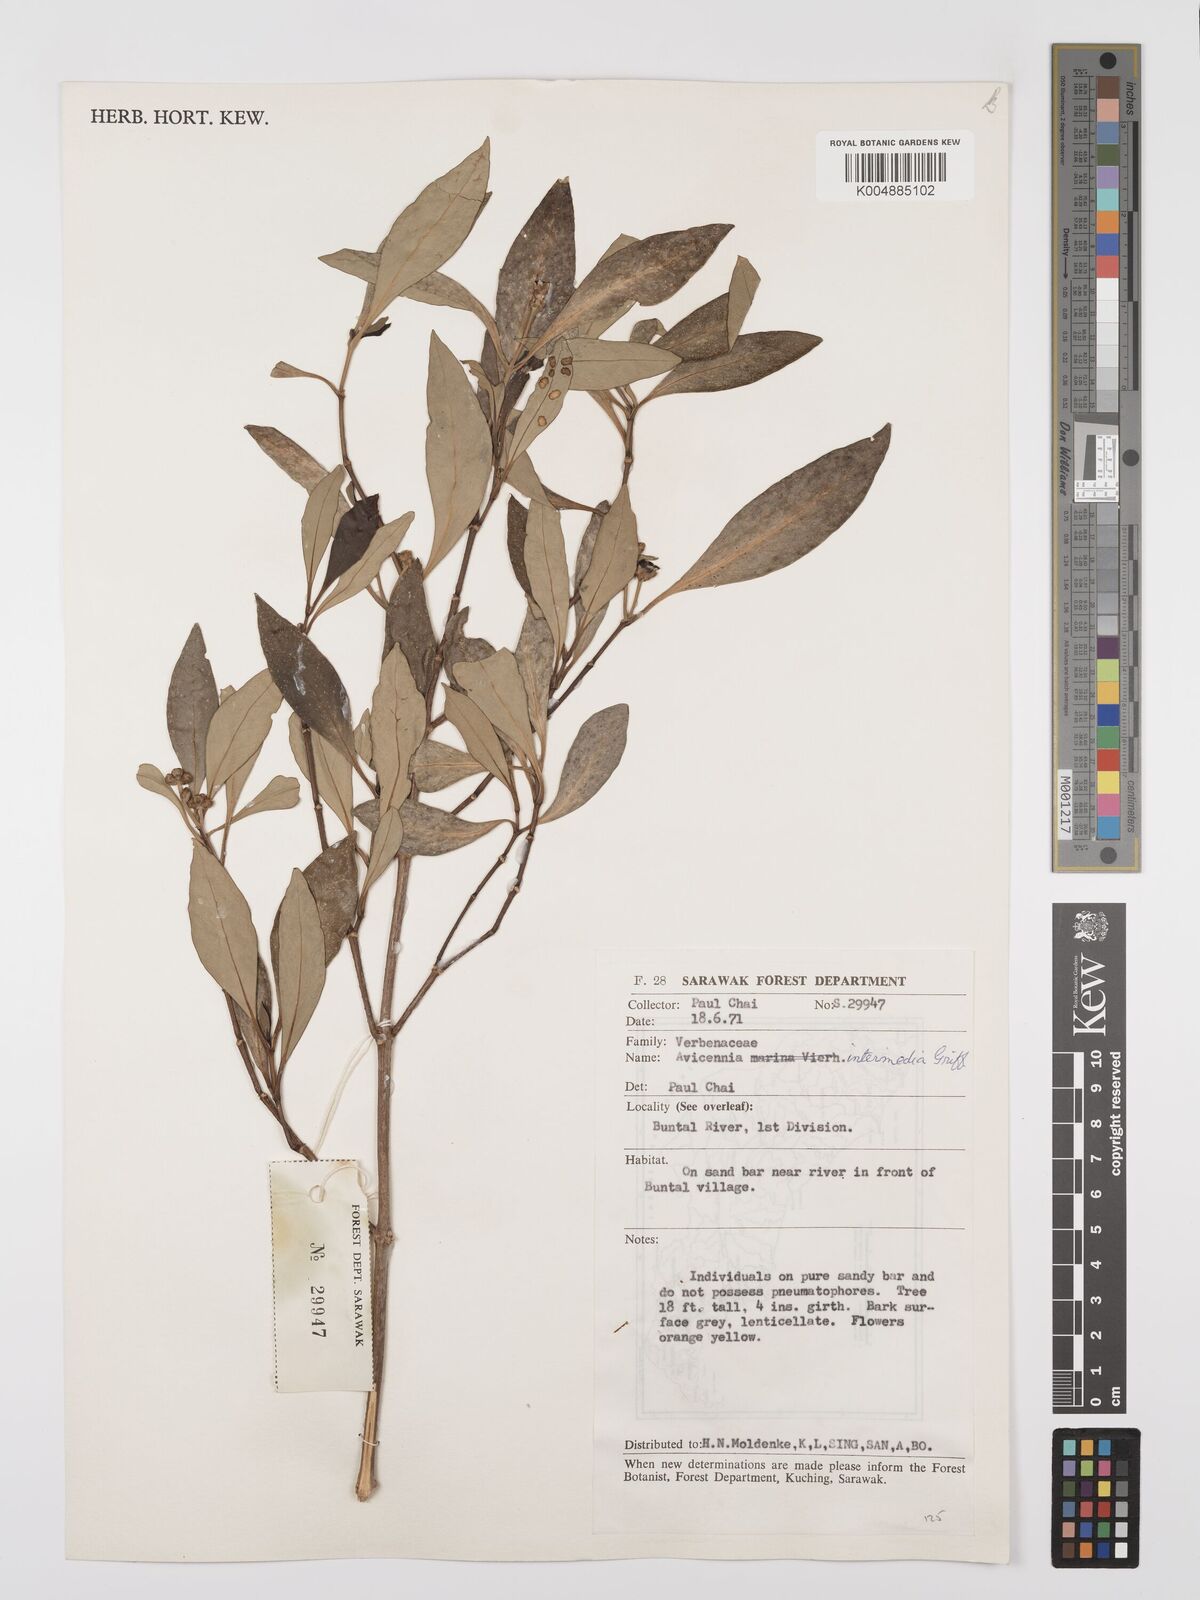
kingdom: Plantae
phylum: Tracheophyta
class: Magnoliopsida
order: Lamiales
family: Acanthaceae
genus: Avicennia
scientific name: Avicennia marina
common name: Gray mangrove
